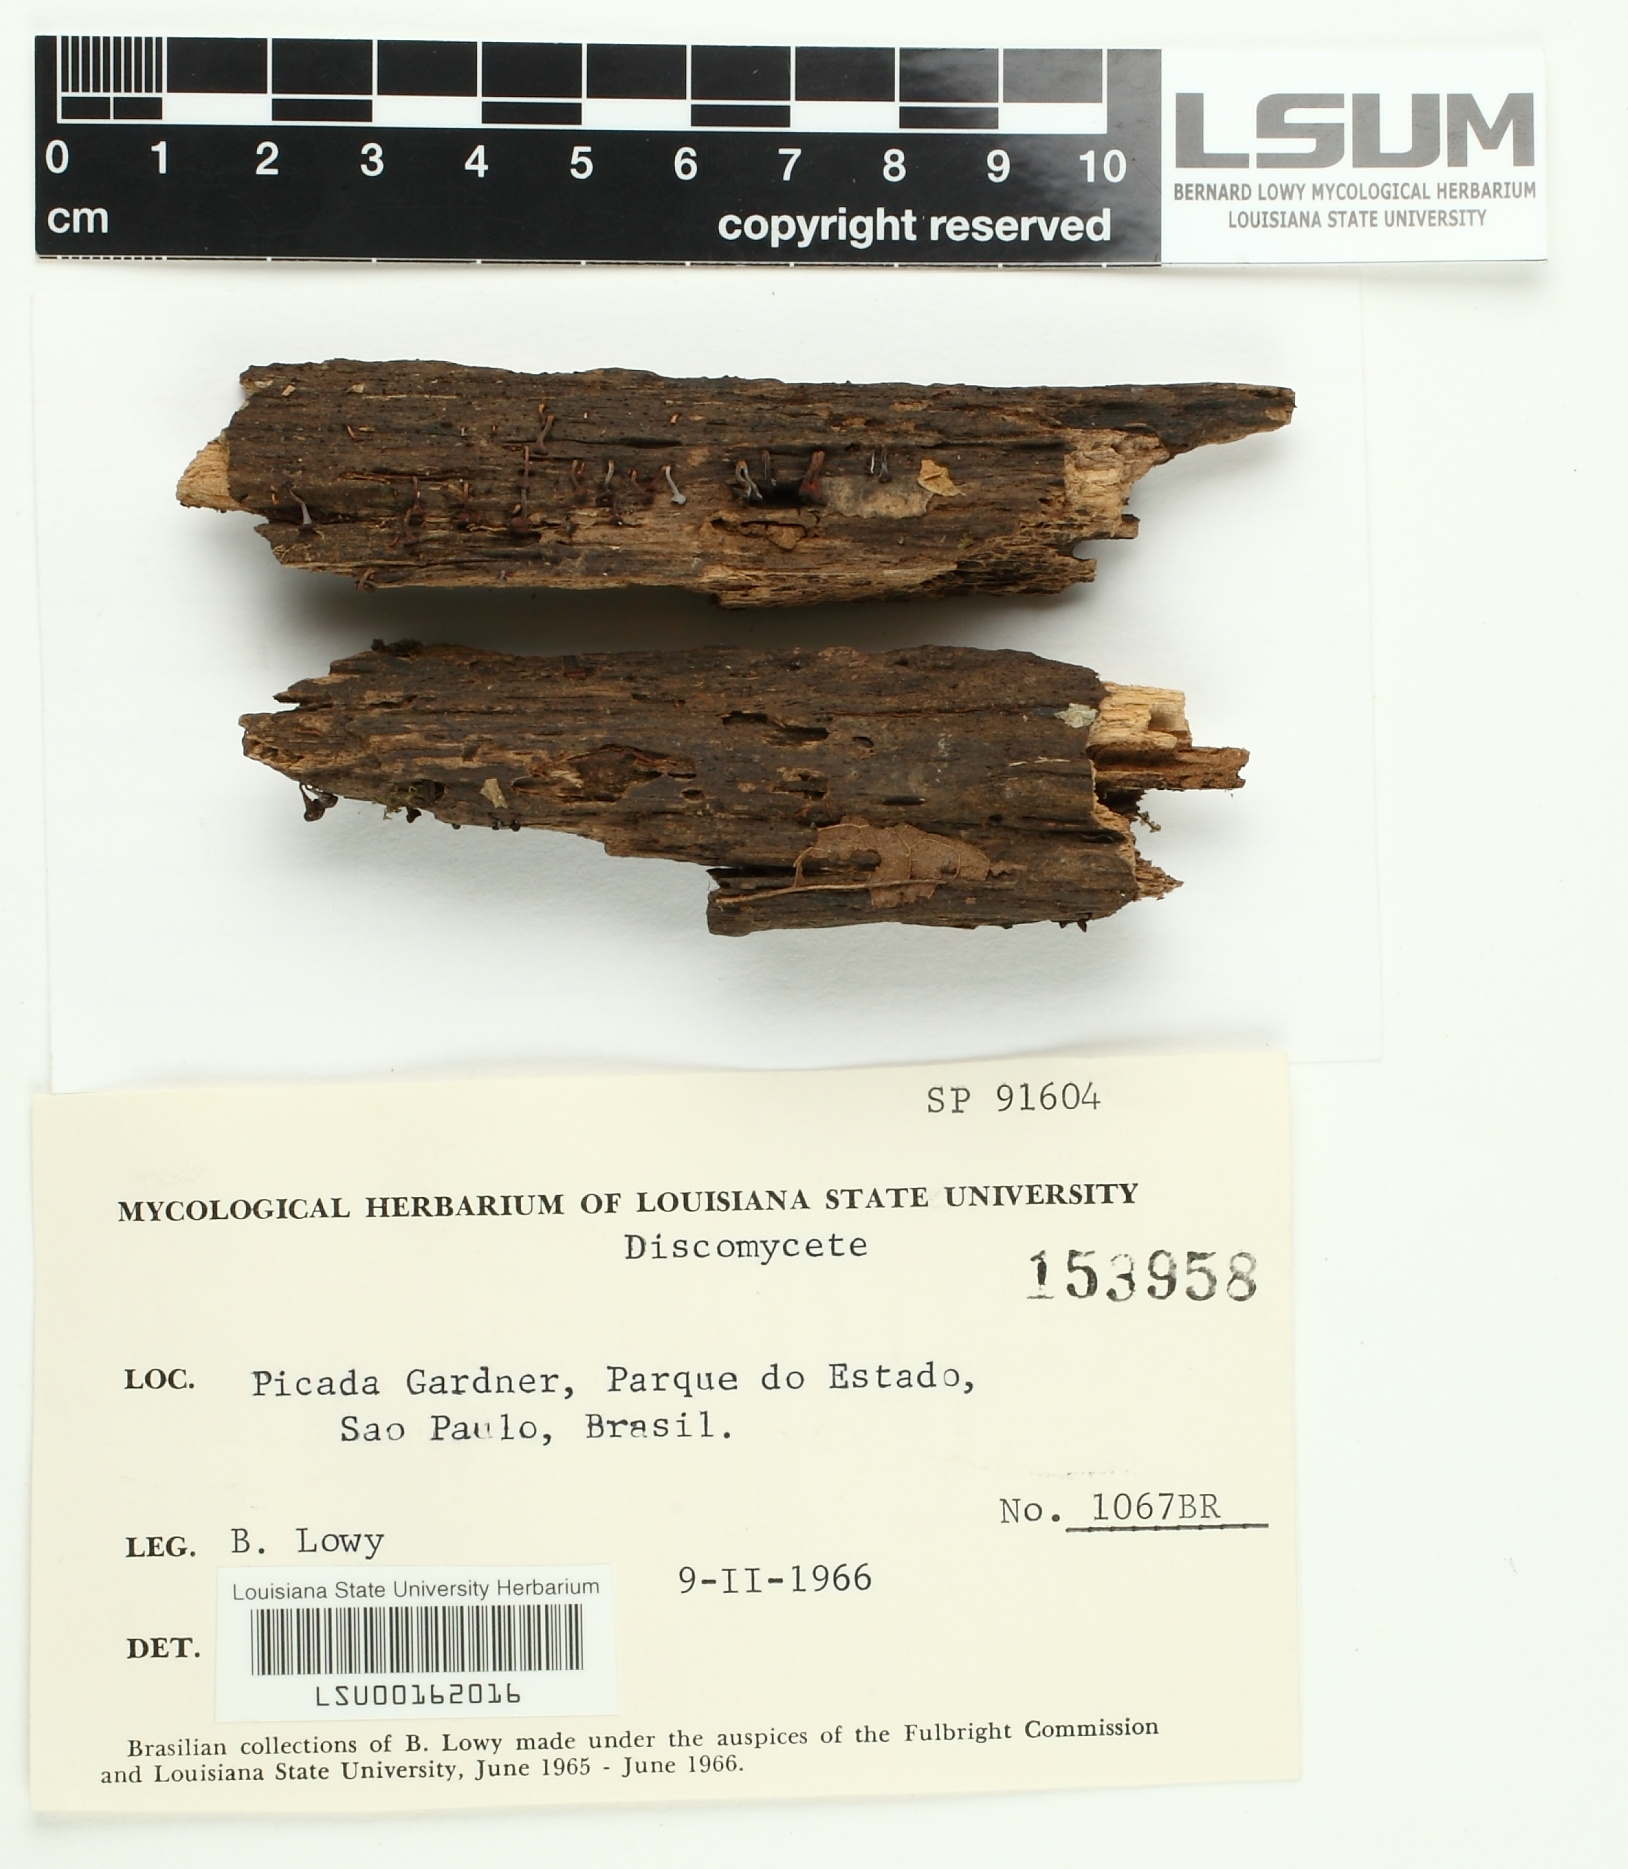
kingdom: Fungi
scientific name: Fungi
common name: Fungi
